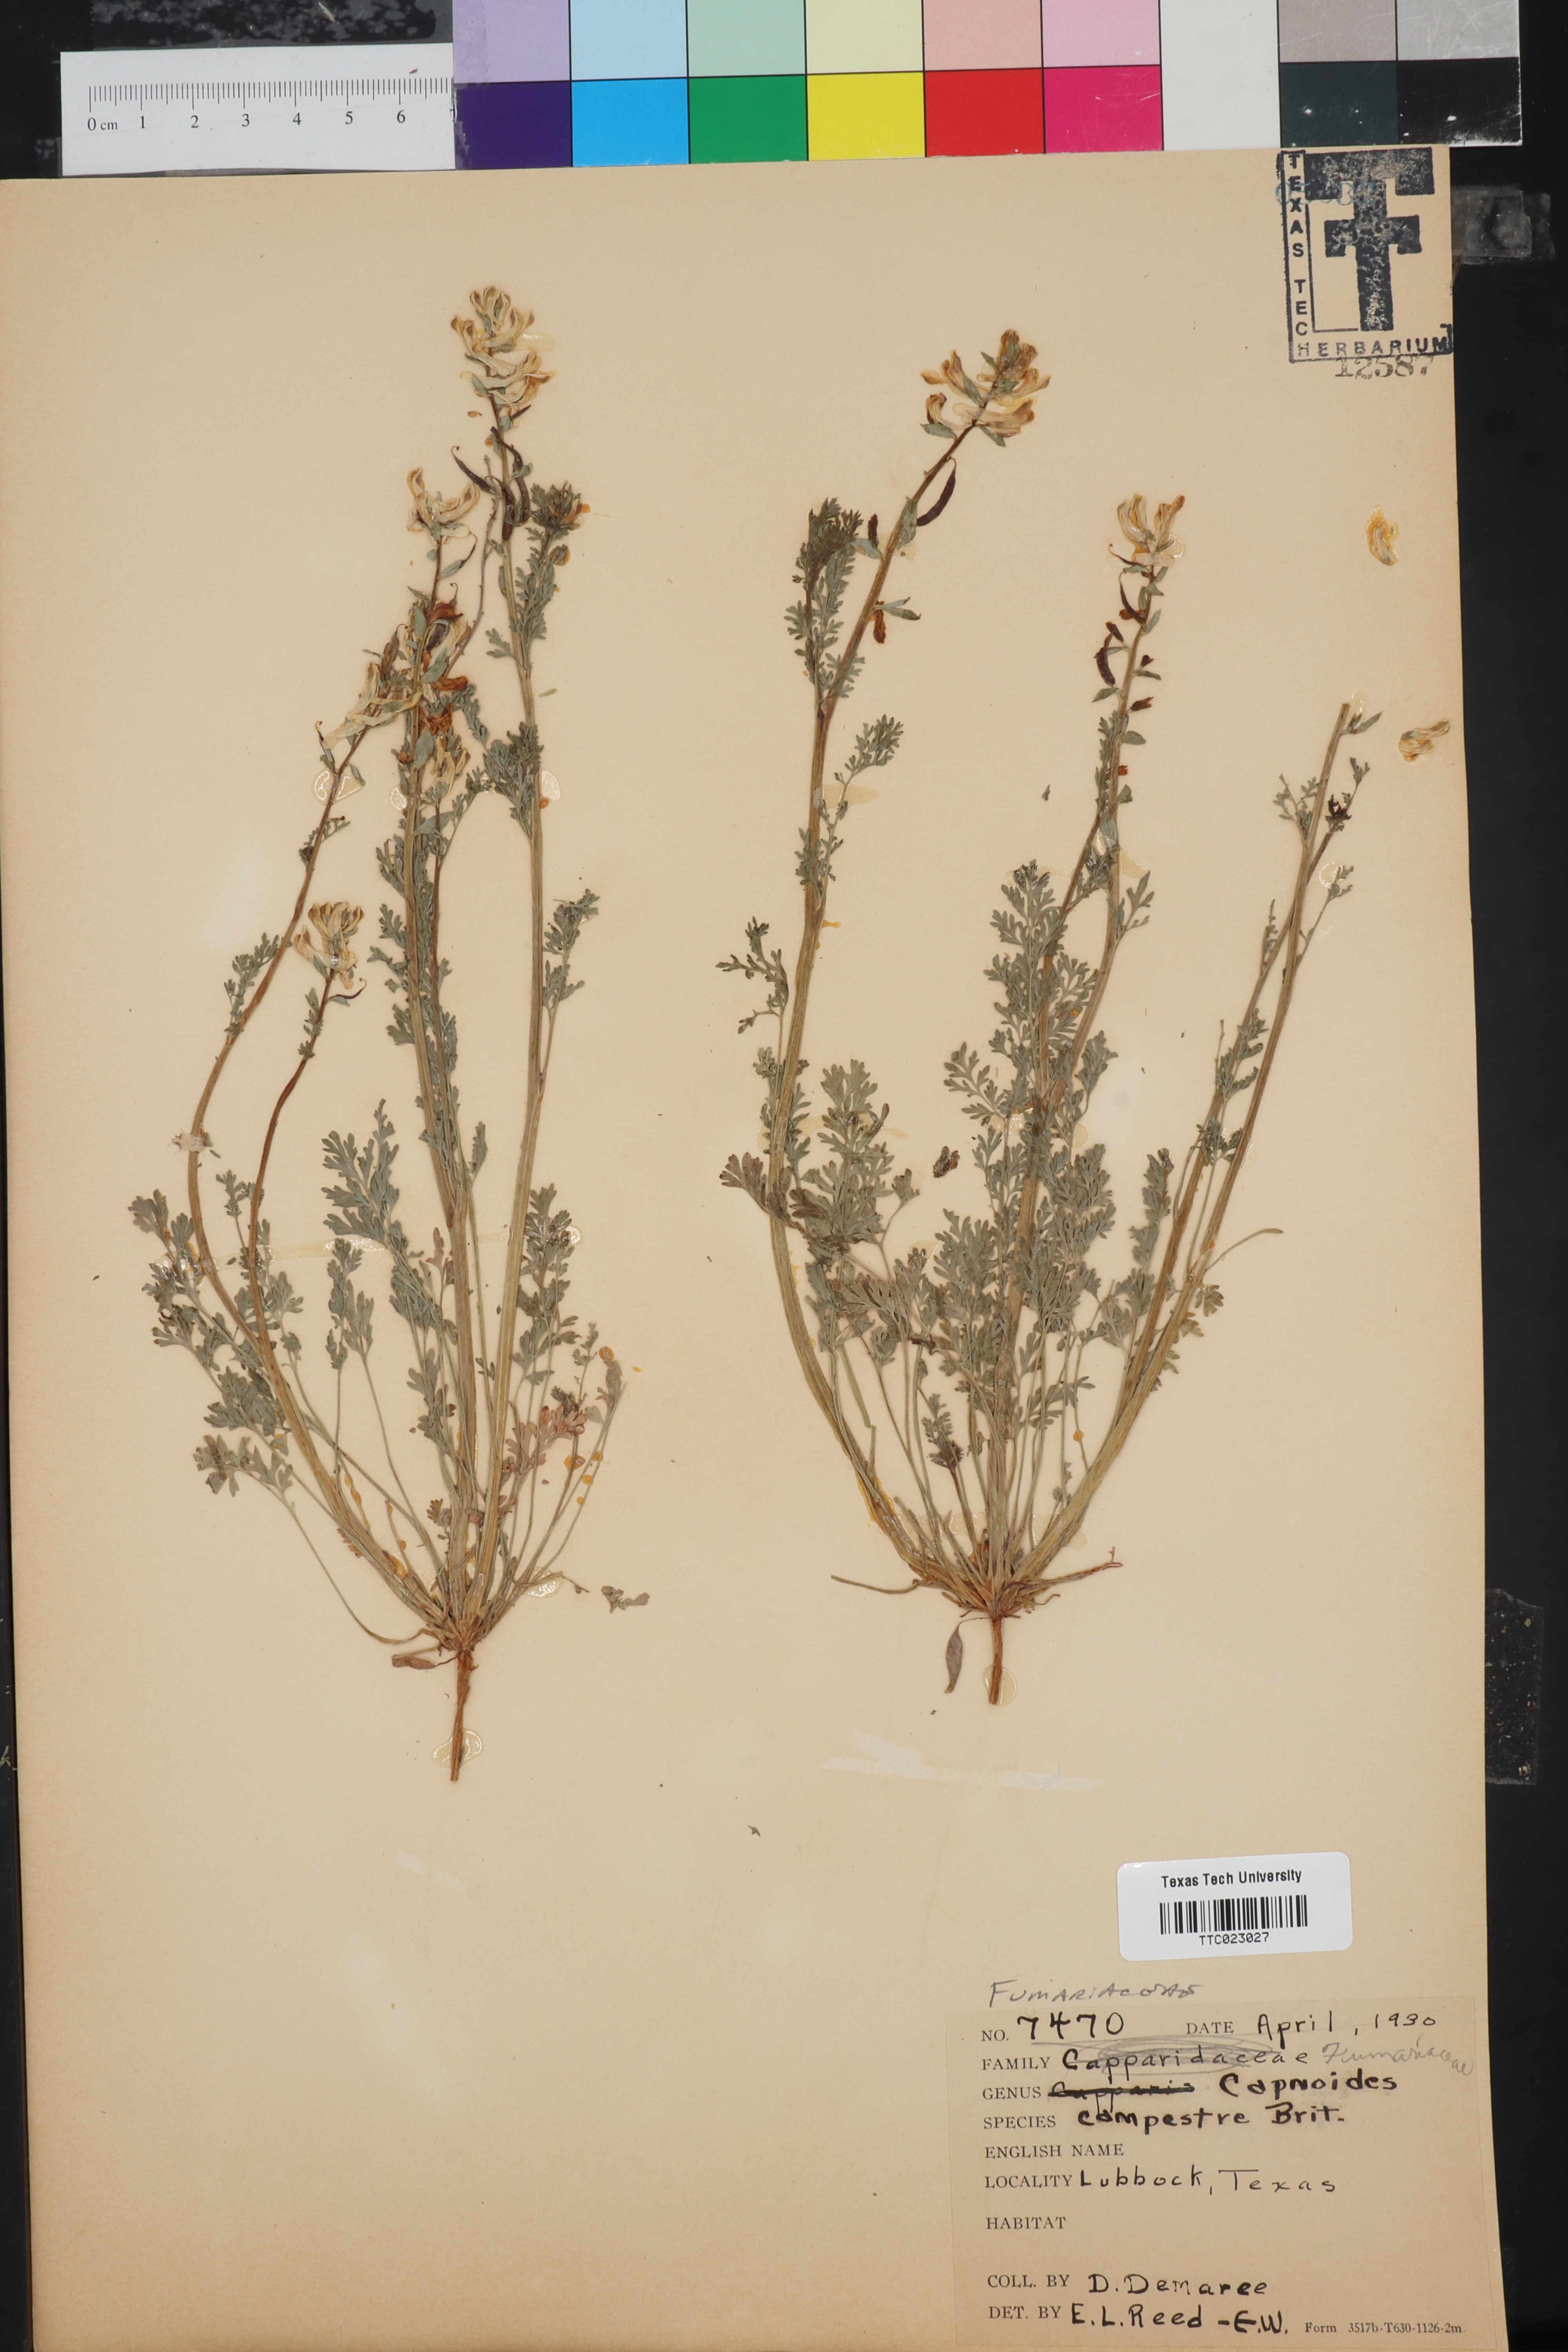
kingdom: Plantae
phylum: Tracheophyta
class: Magnoliopsida
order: Ranunculales
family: Papaveraceae
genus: Corydalis
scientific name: Corydalis micrantha
